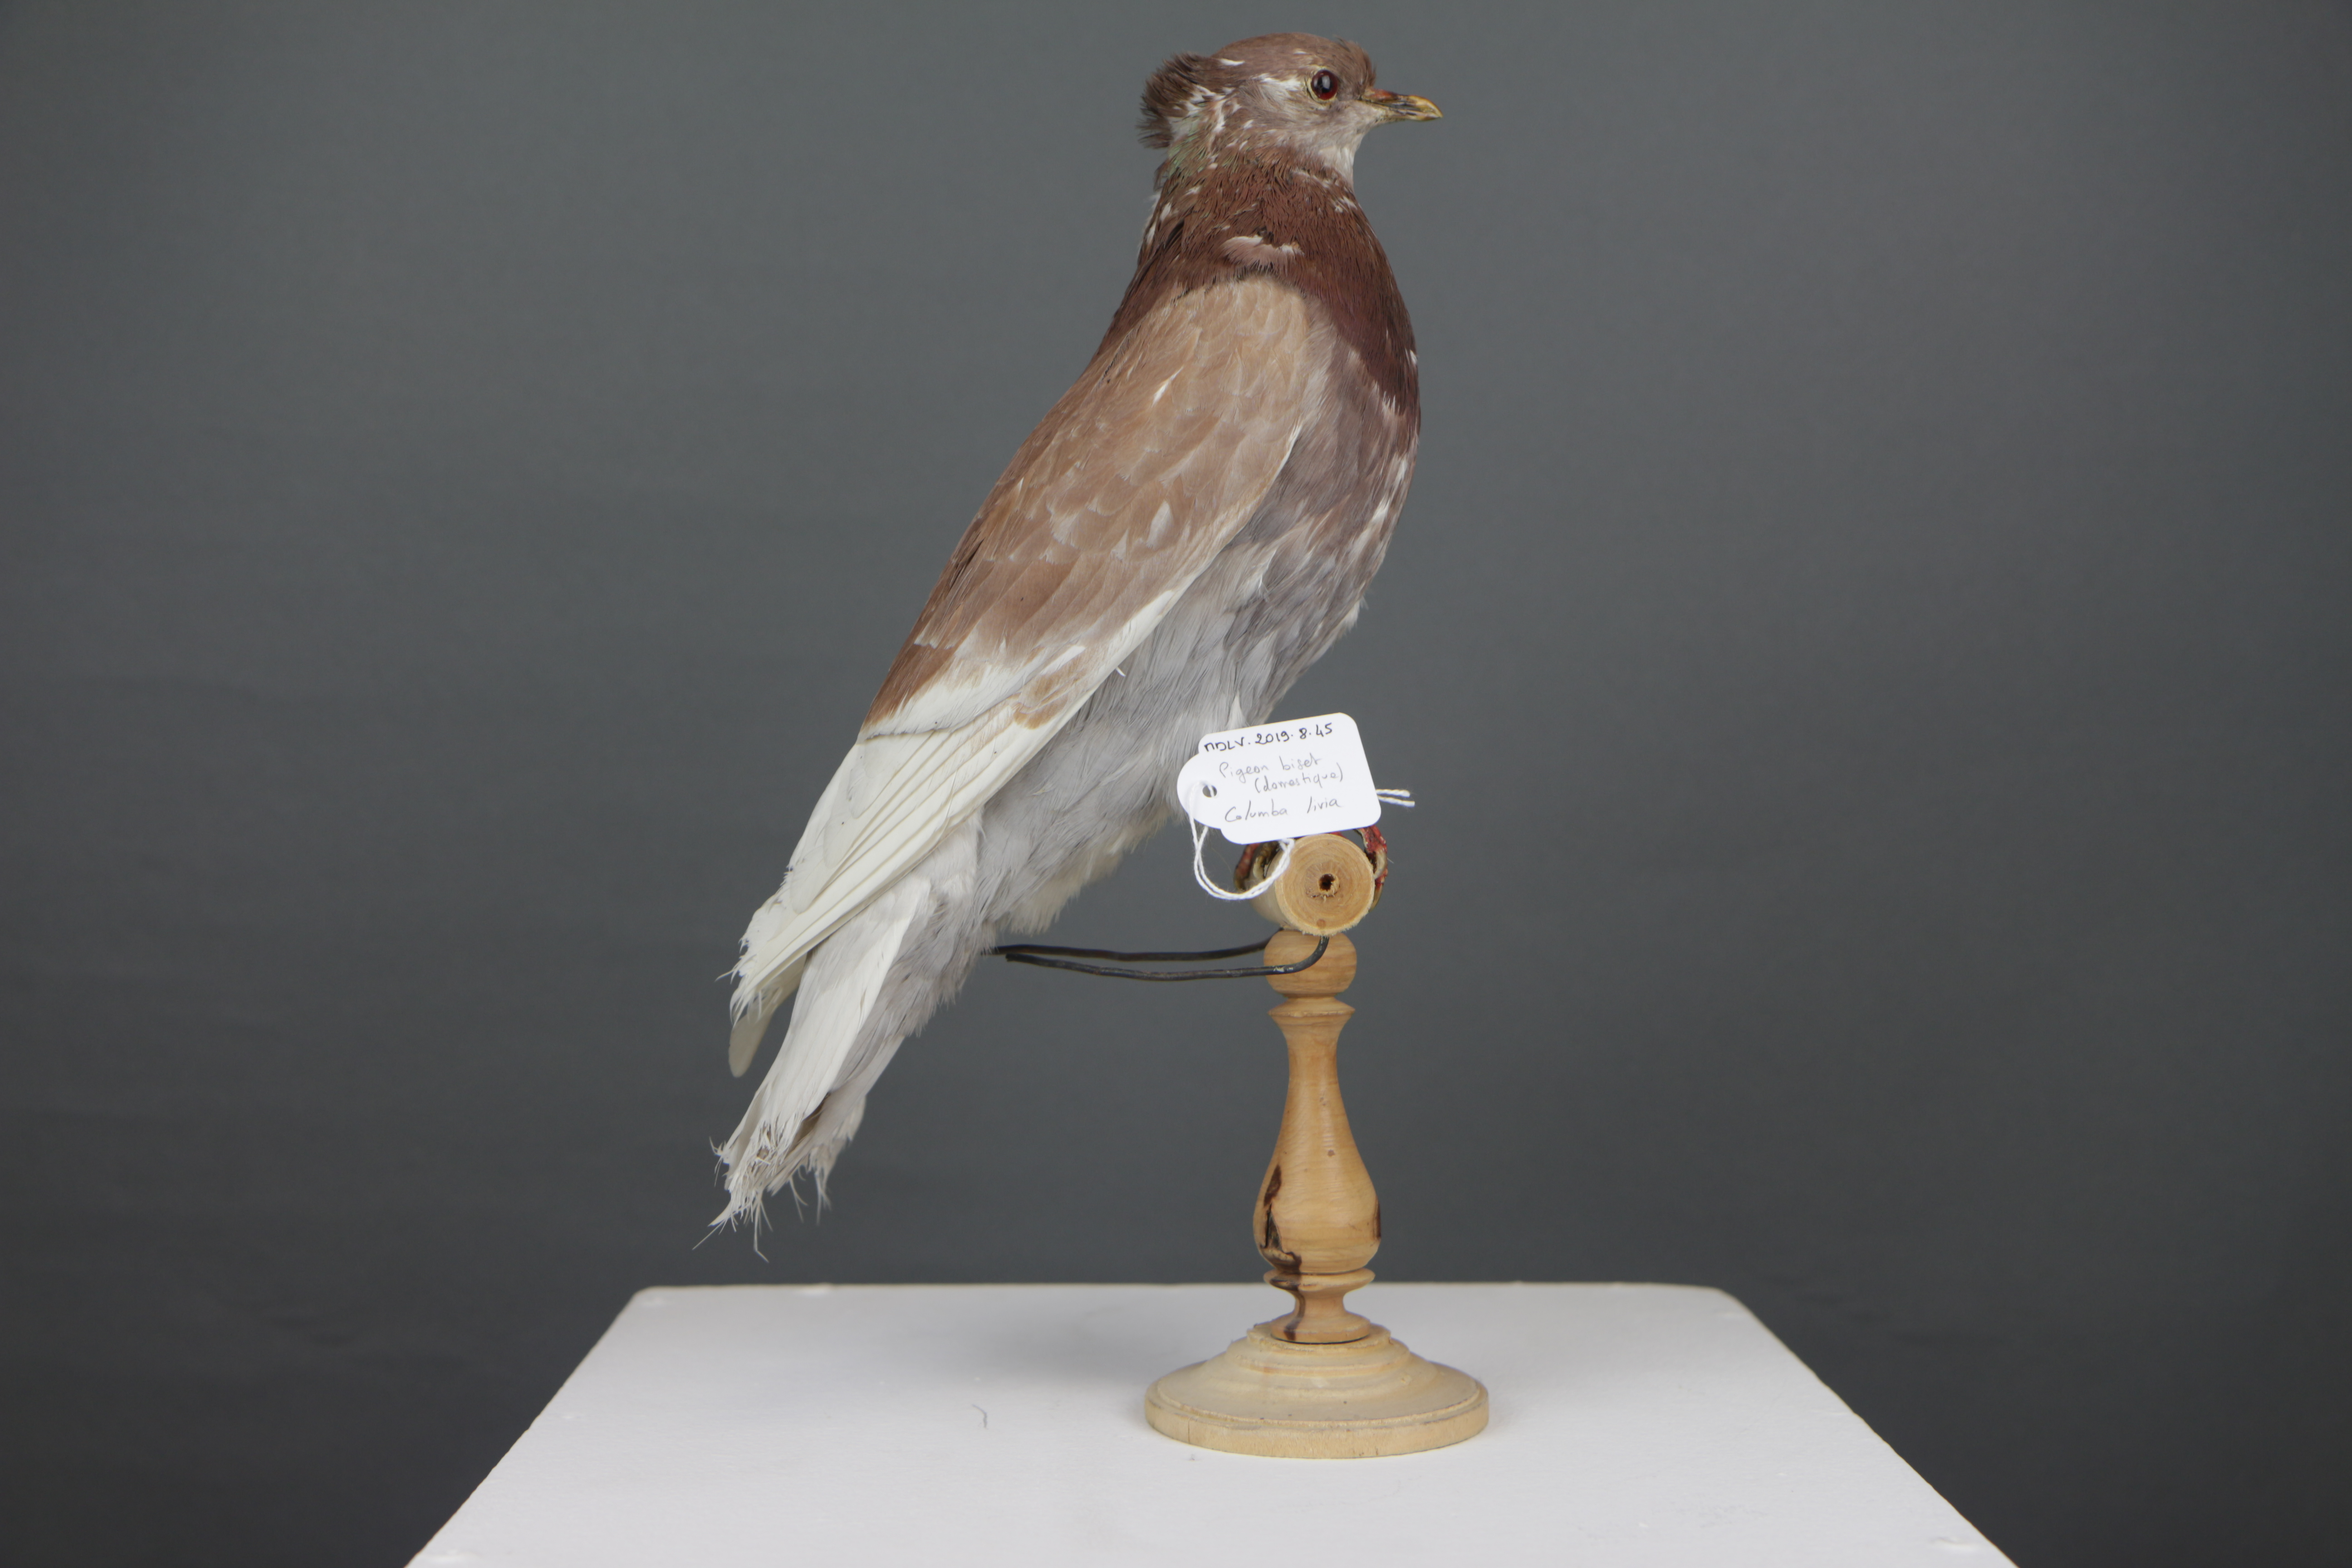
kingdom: Animalia
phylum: Chordata
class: Aves
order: Columbiformes
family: Columbidae
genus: Columba
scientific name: Columba livia
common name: Rock pigeon
